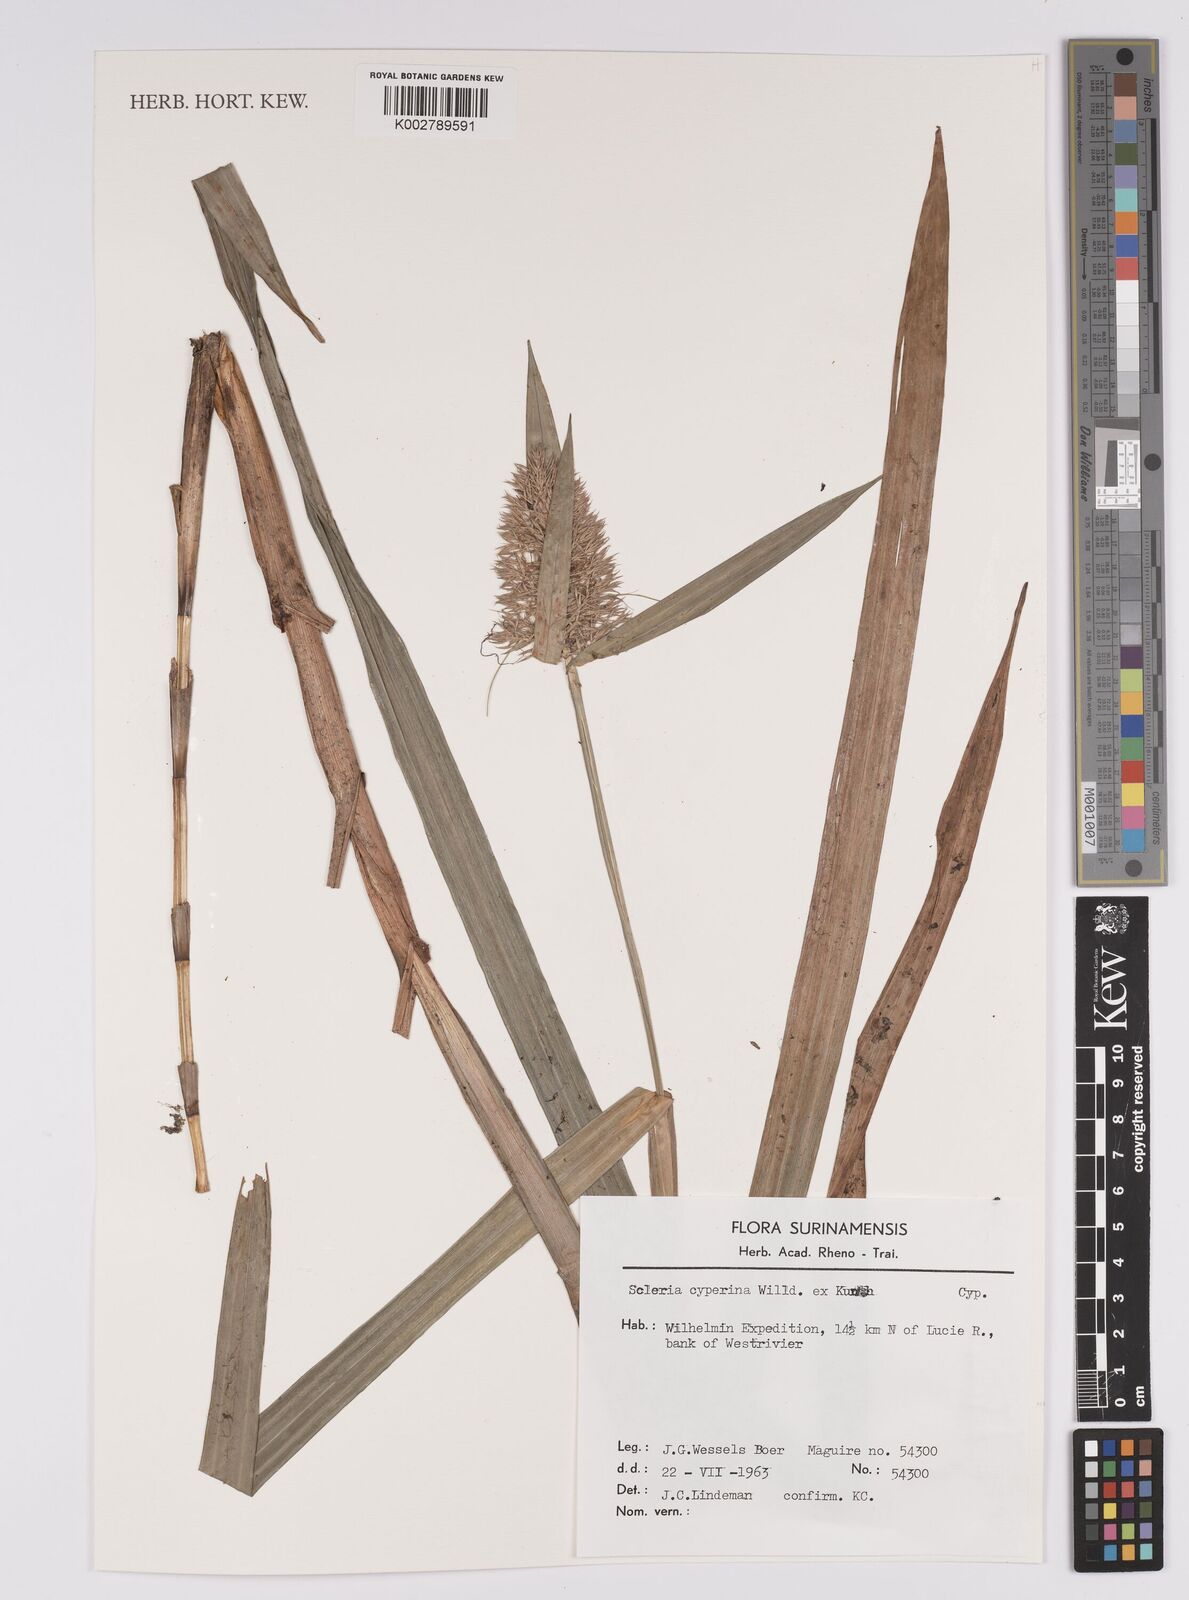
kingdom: Plantae
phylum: Tracheophyta
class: Liliopsida
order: Poales
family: Cyperaceae
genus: Scleria
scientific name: Scleria cyperina
